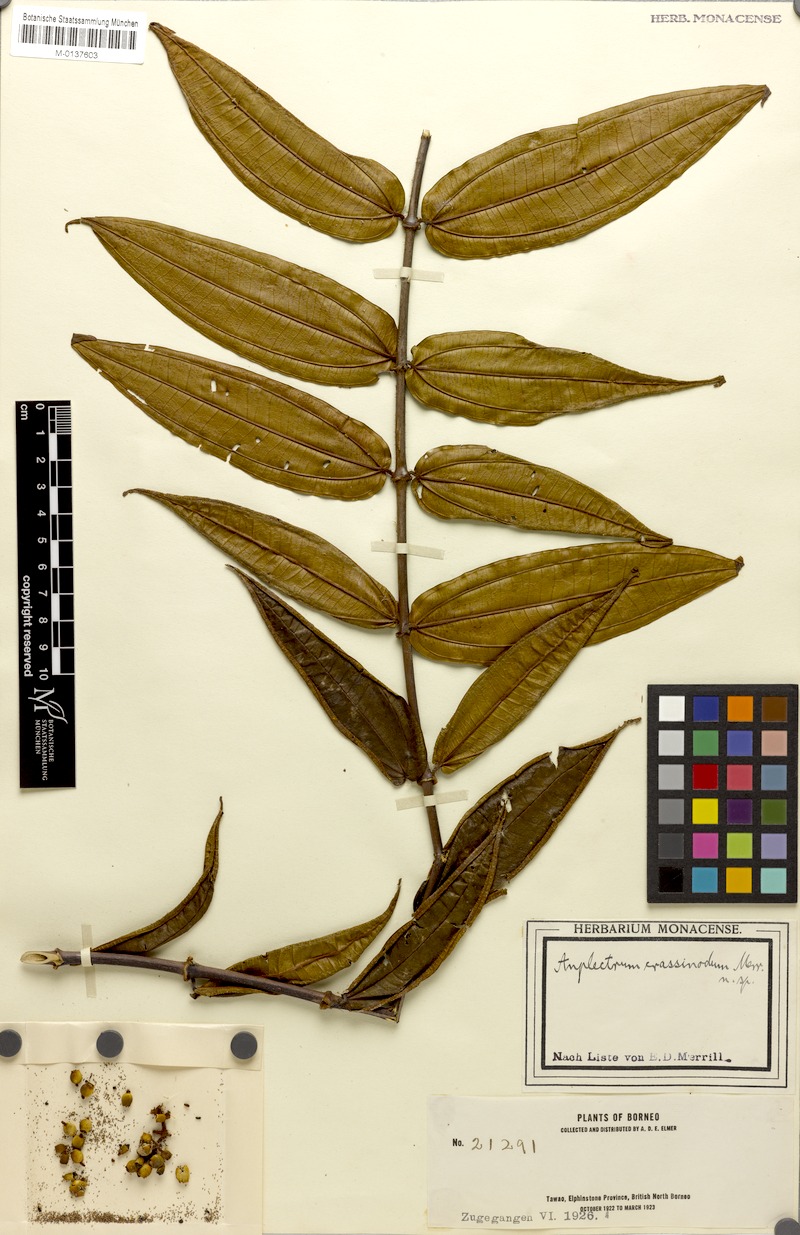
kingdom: Plantae
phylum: Tracheophyta
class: Magnoliopsida
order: Myrtales
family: Melastomataceae
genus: Diplectria
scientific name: Diplectria
